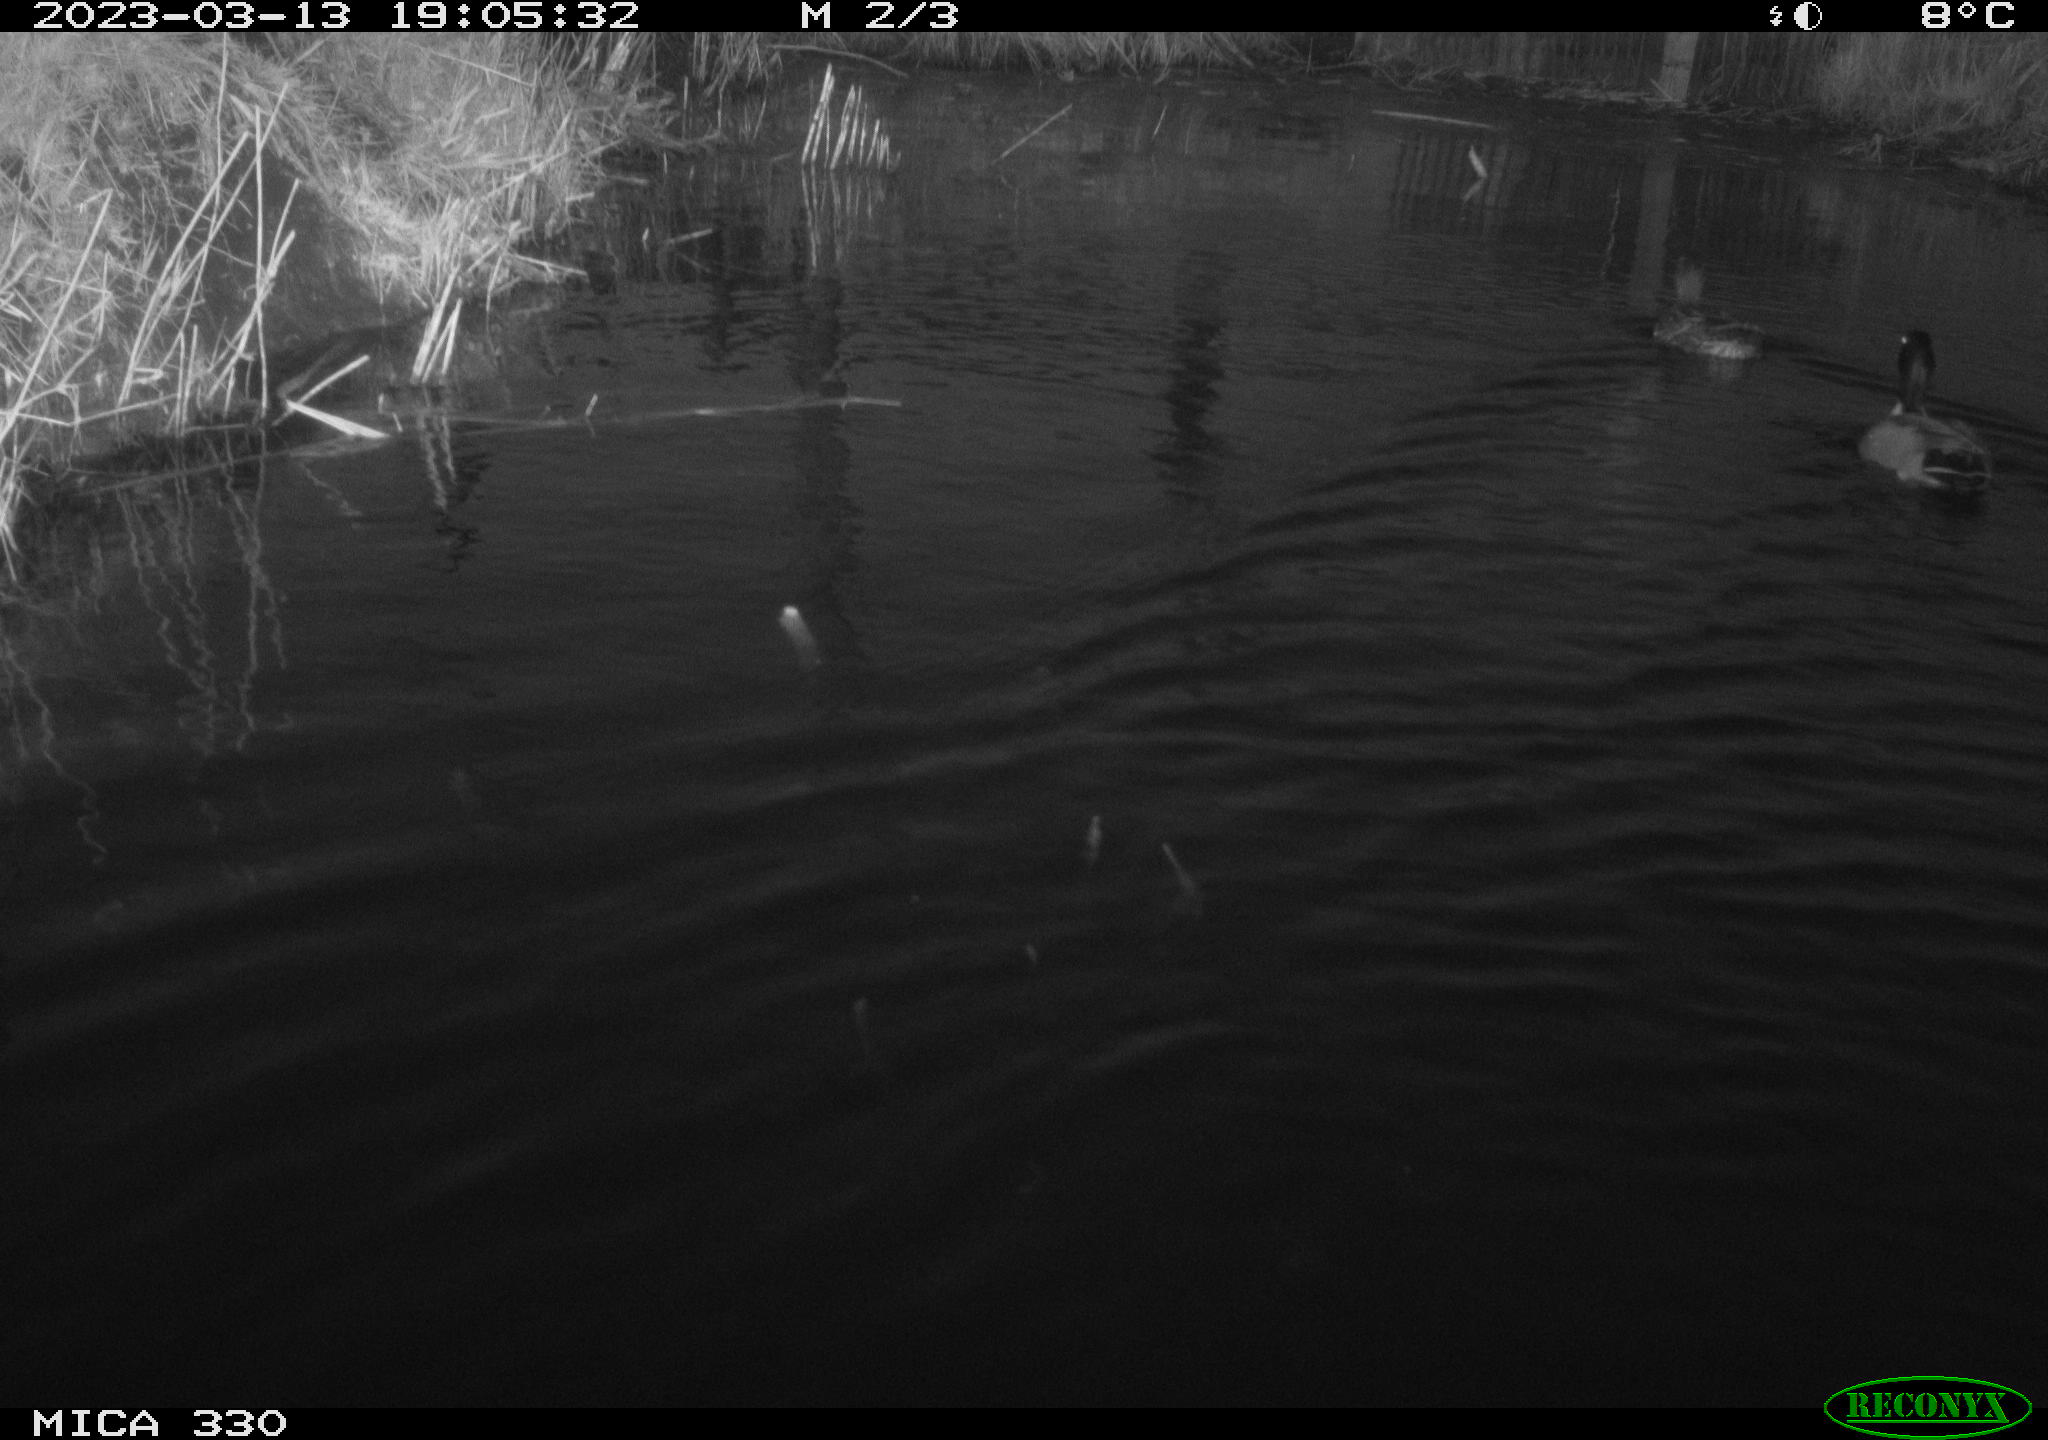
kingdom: Animalia
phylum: Chordata
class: Aves
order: Anseriformes
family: Anatidae
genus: Anas
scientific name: Anas
